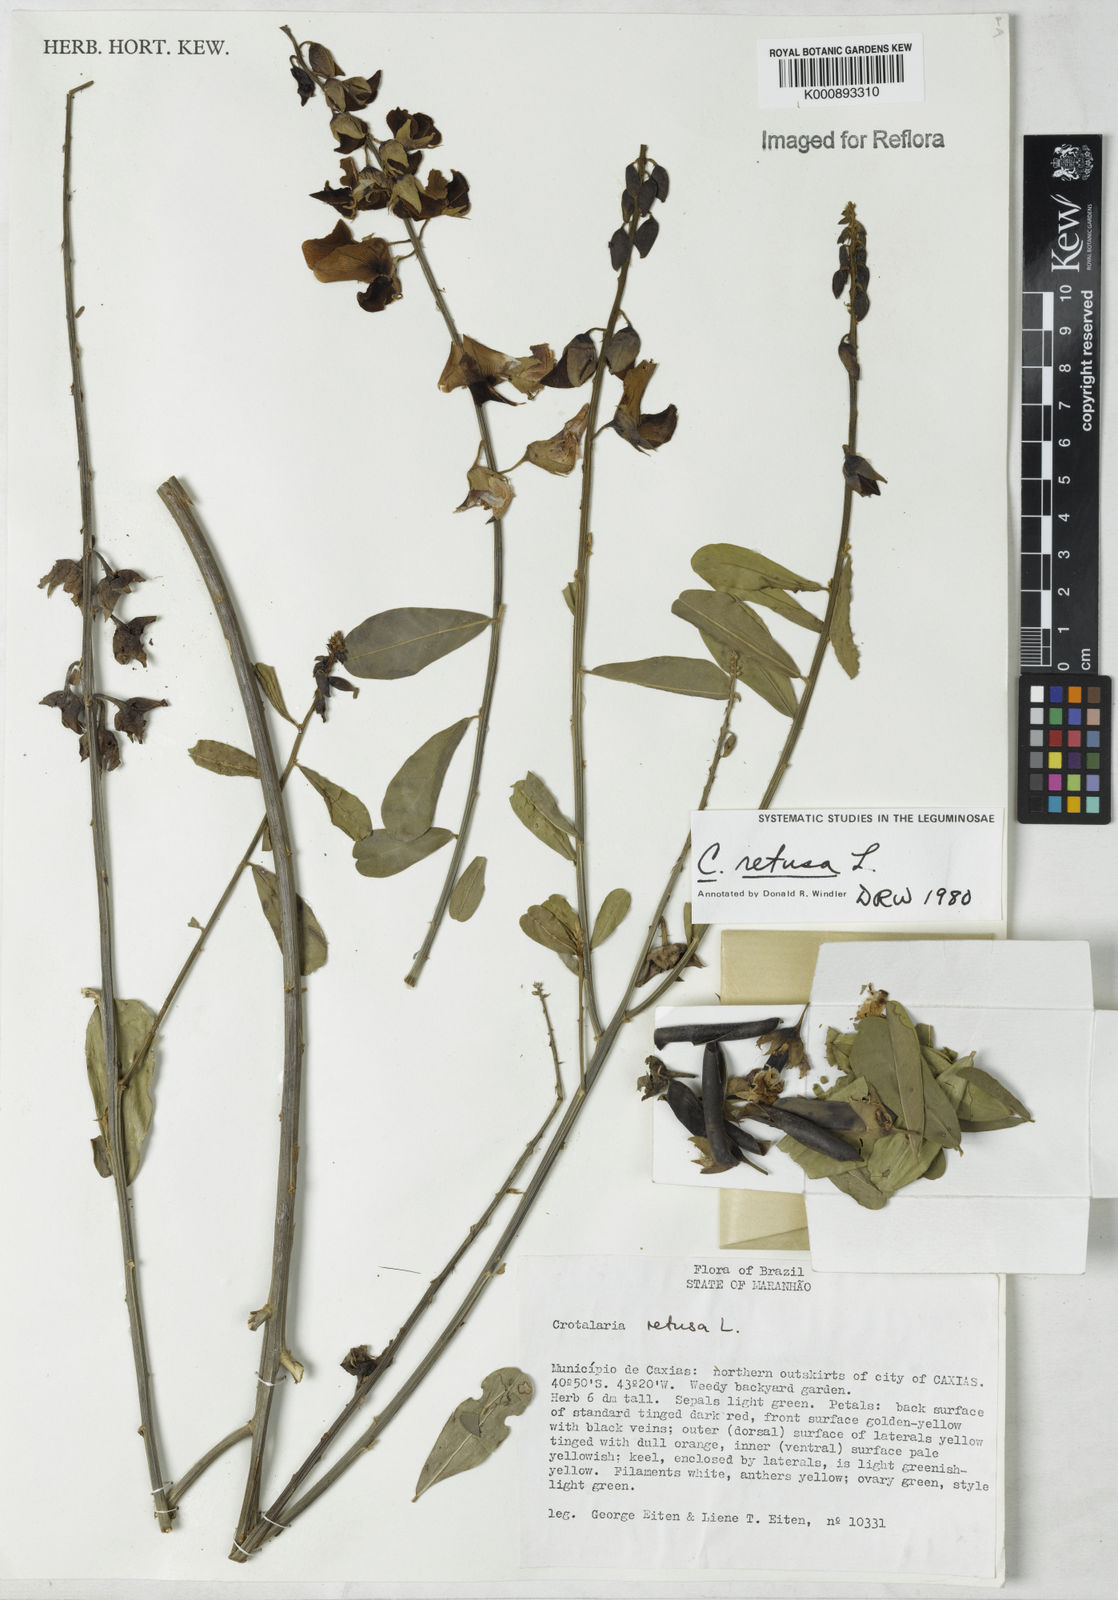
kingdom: Plantae
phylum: Tracheophyta
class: Magnoliopsida
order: Fabales
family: Fabaceae
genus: Crotalaria
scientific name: Crotalaria retusa
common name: Rattleweed
